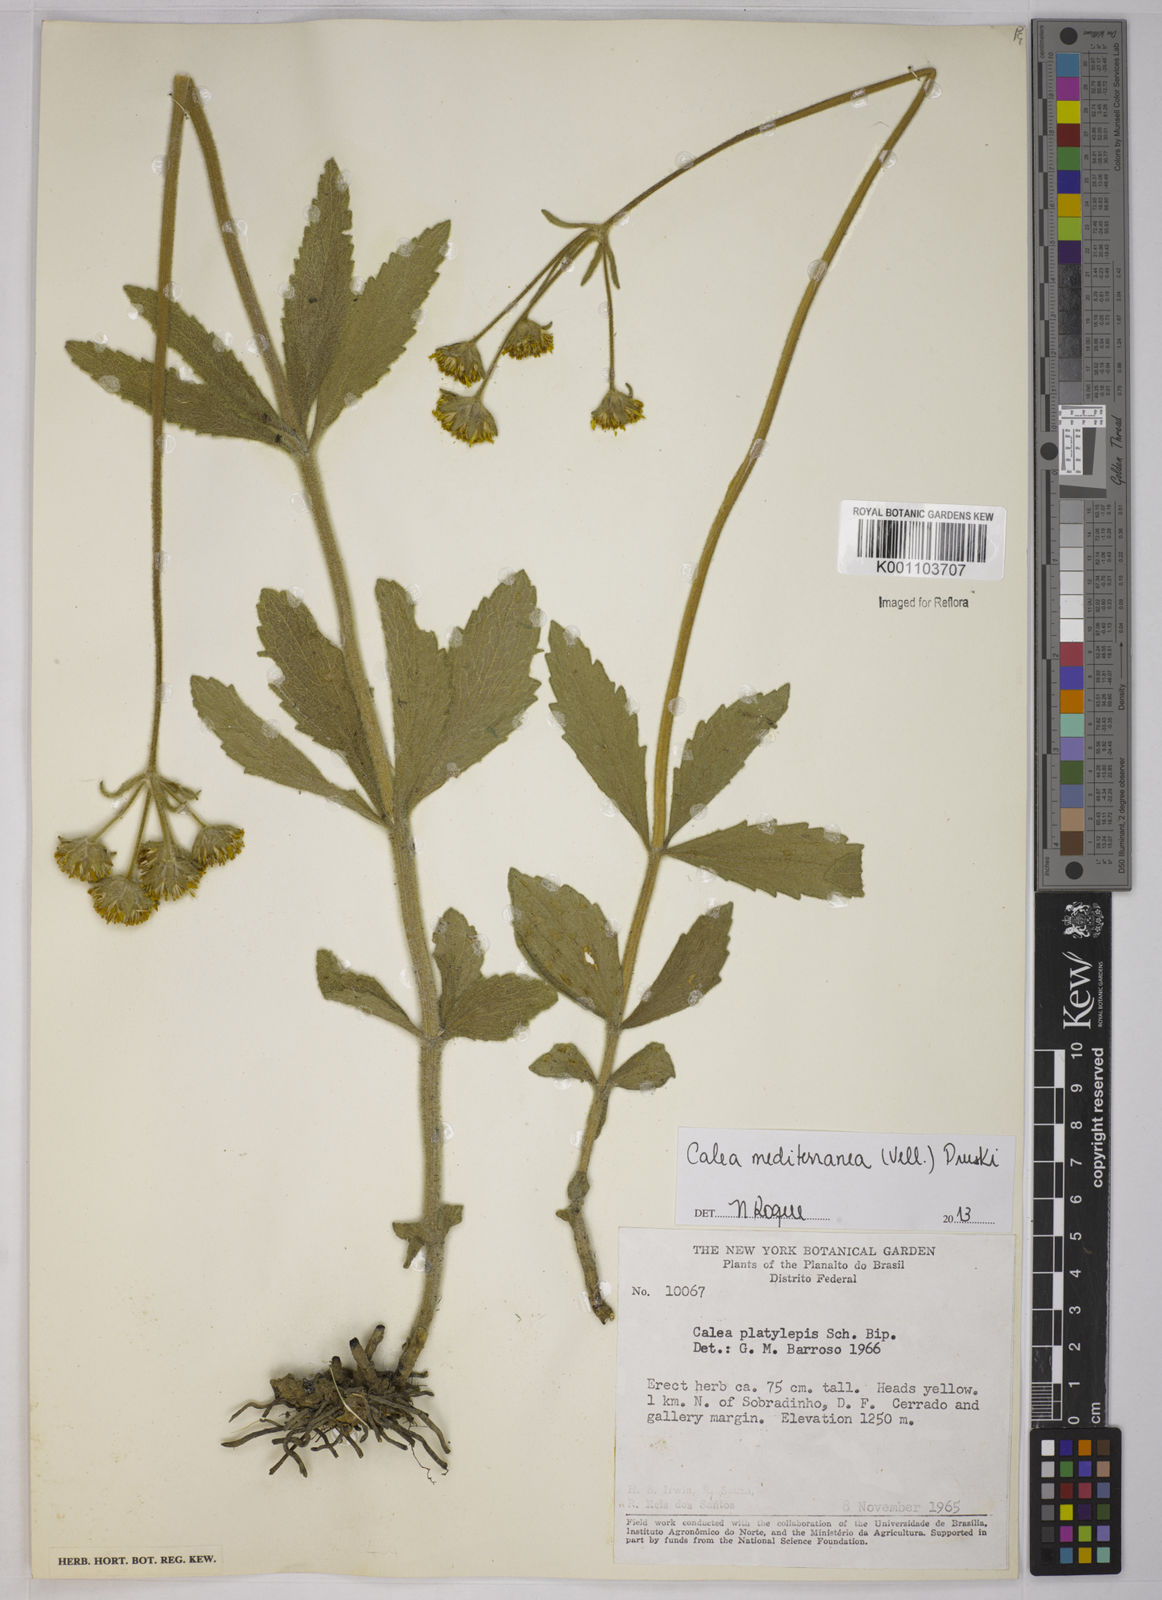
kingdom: Plantae
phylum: Tracheophyta
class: Magnoliopsida
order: Asterales
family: Asteraceae
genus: Calea
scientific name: Calea mediterranea
